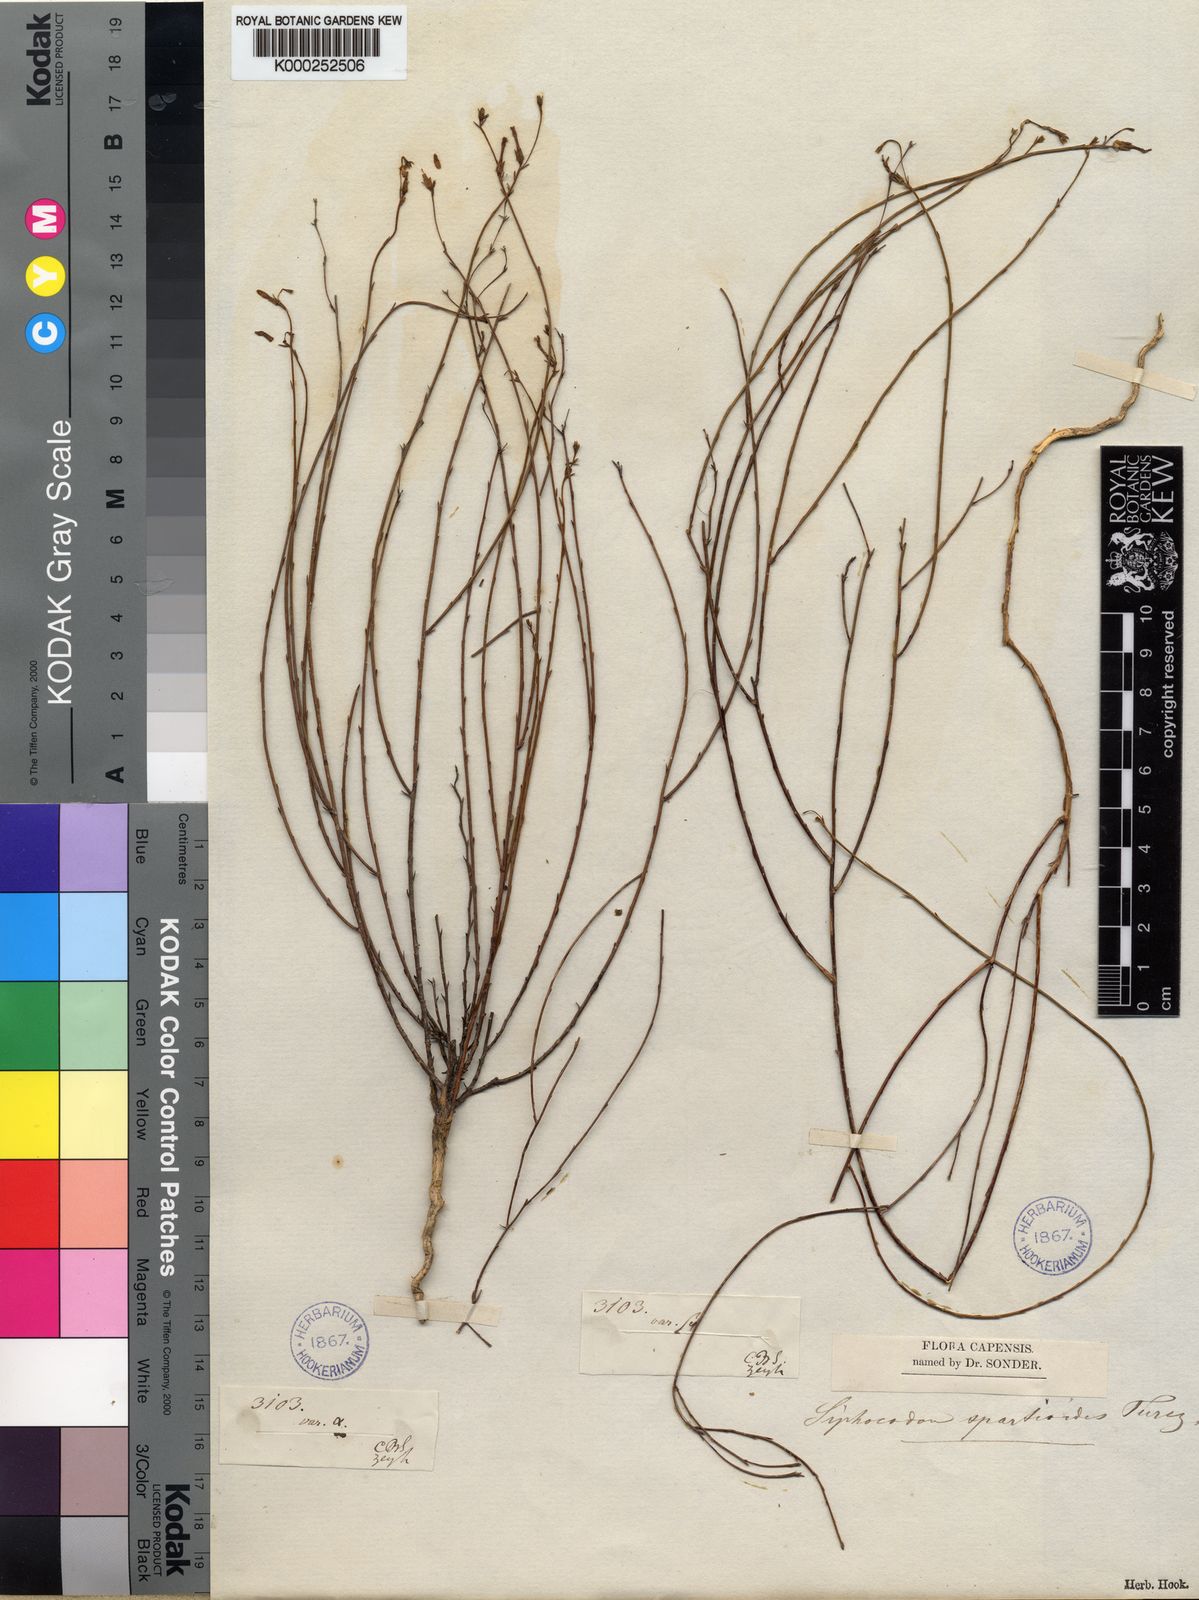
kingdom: Plantae
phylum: Tracheophyta
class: Magnoliopsida
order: Asterales
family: Campanulaceae
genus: Siphocodon
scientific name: Siphocodon spartioides
